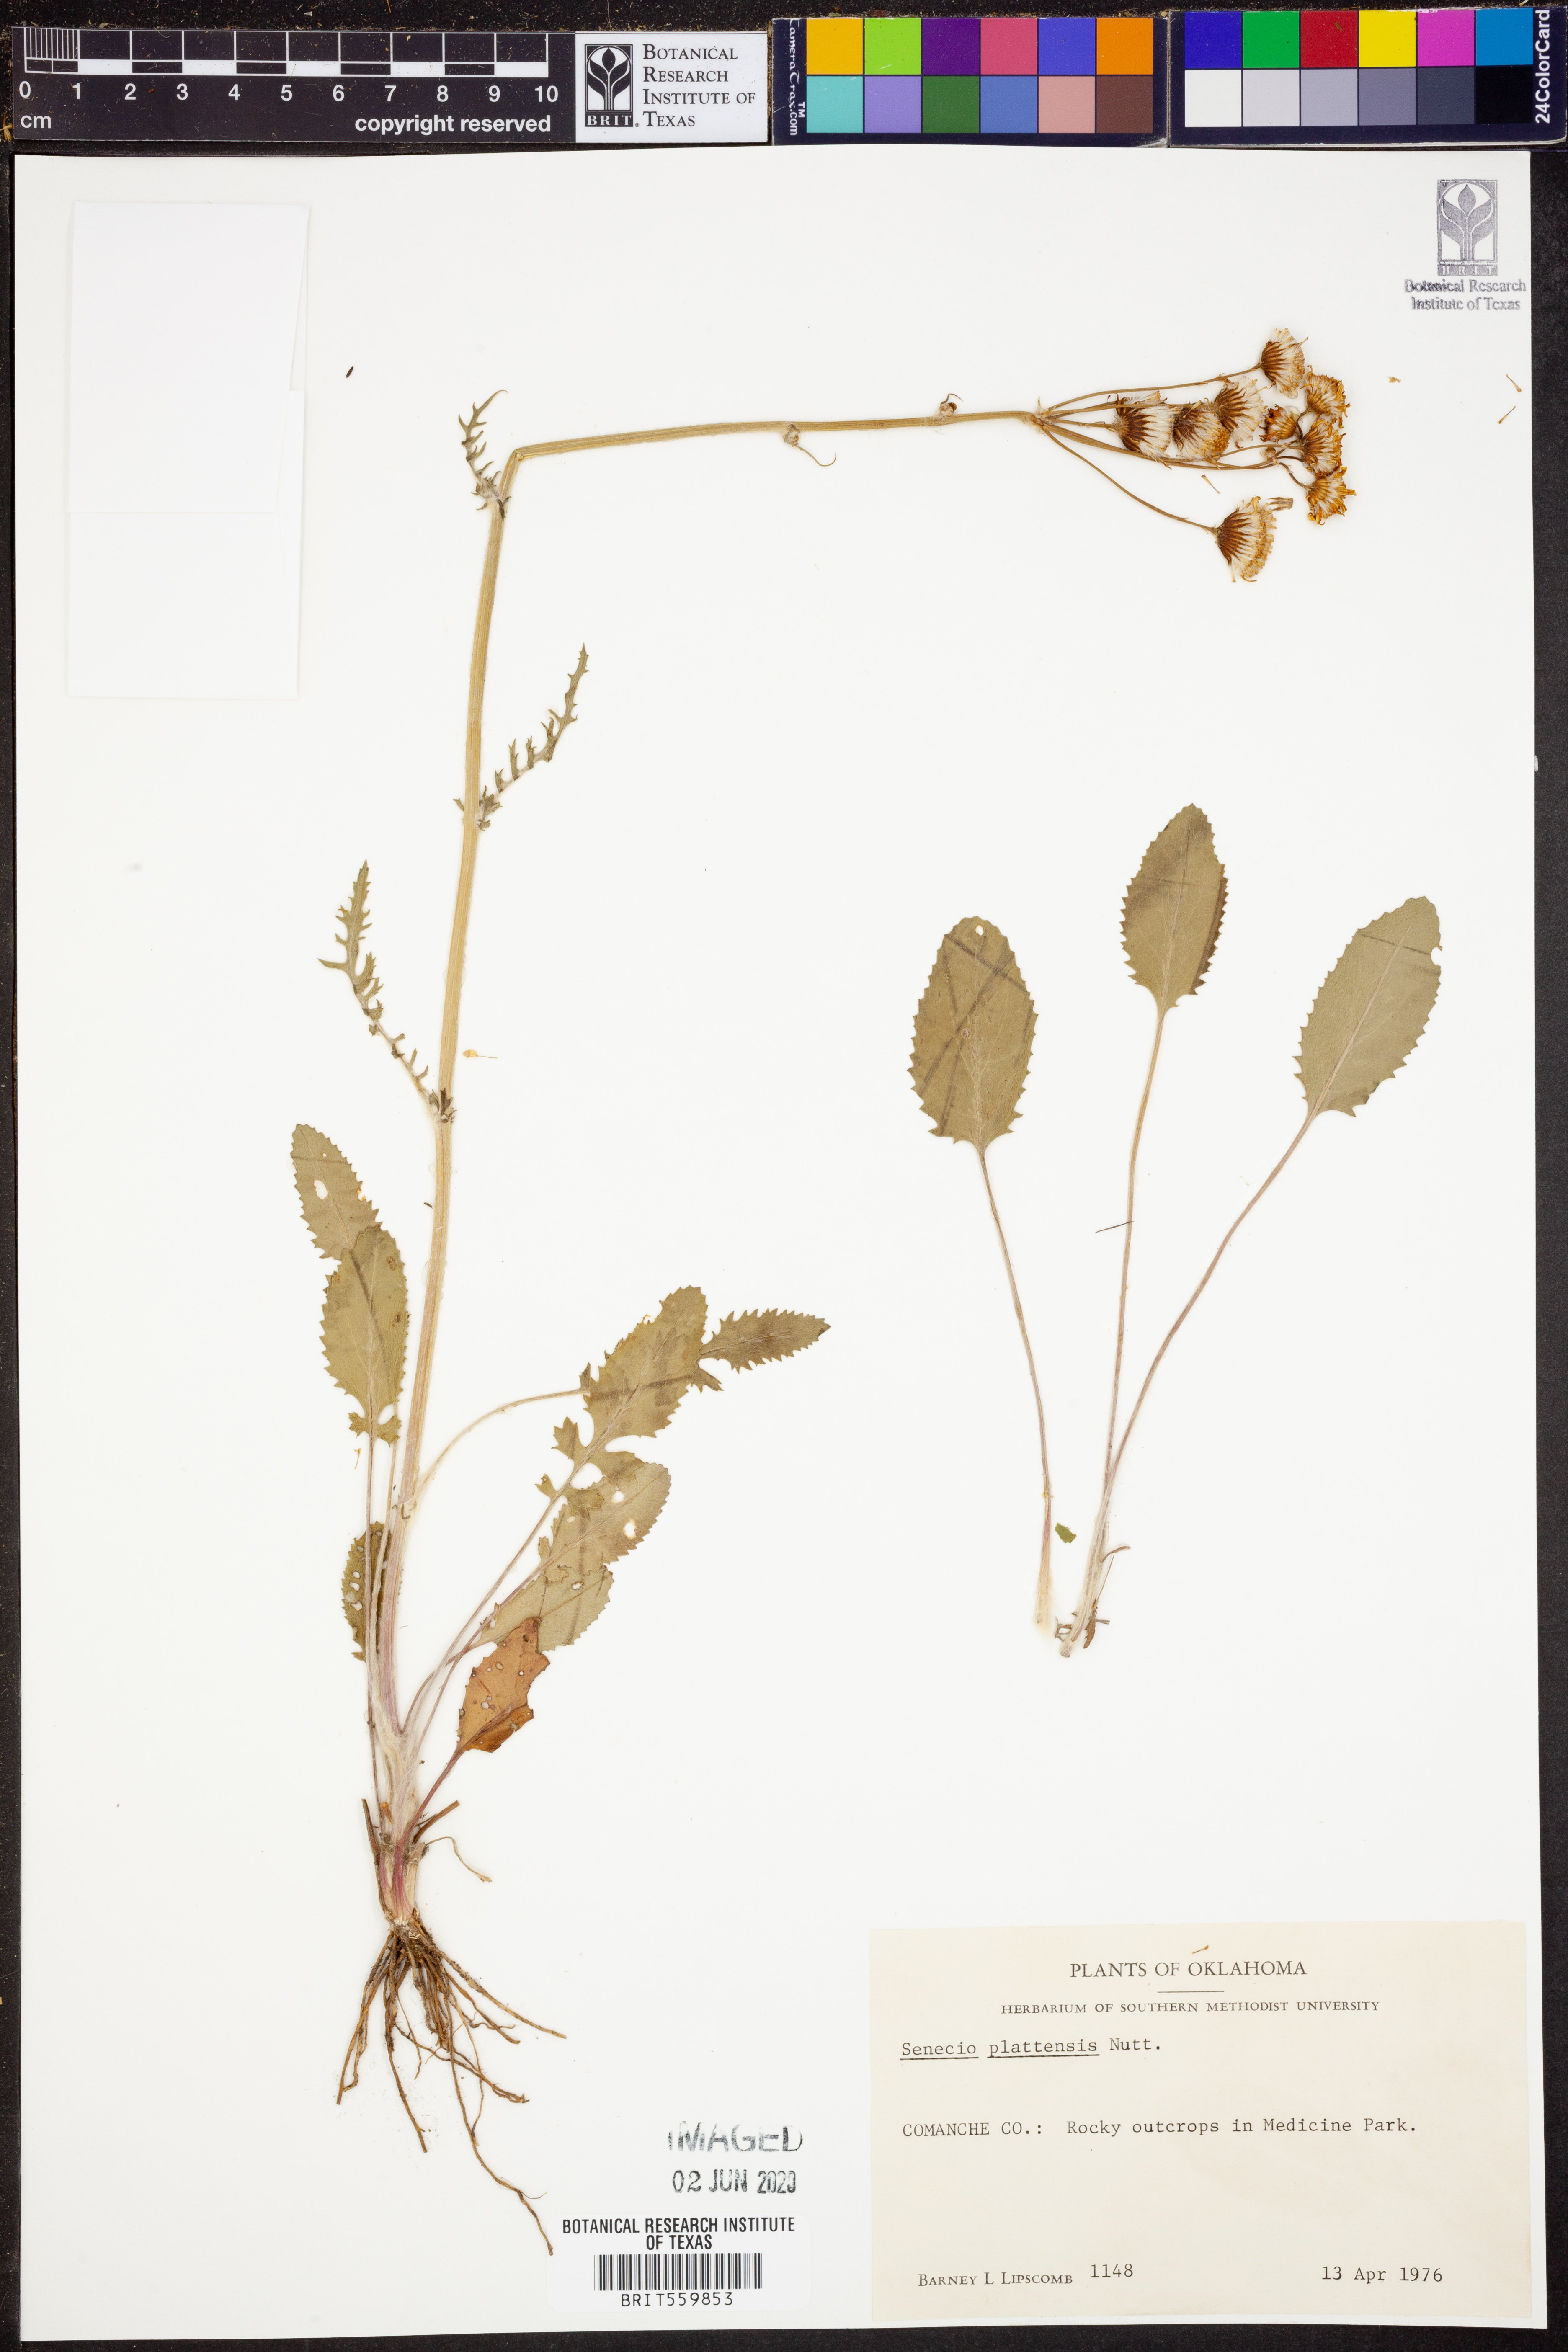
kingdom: Plantae
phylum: Tracheophyta
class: Magnoliopsida
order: Asterales
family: Asteraceae
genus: Packera
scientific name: Packera plattensis
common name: Prairie groundsel
